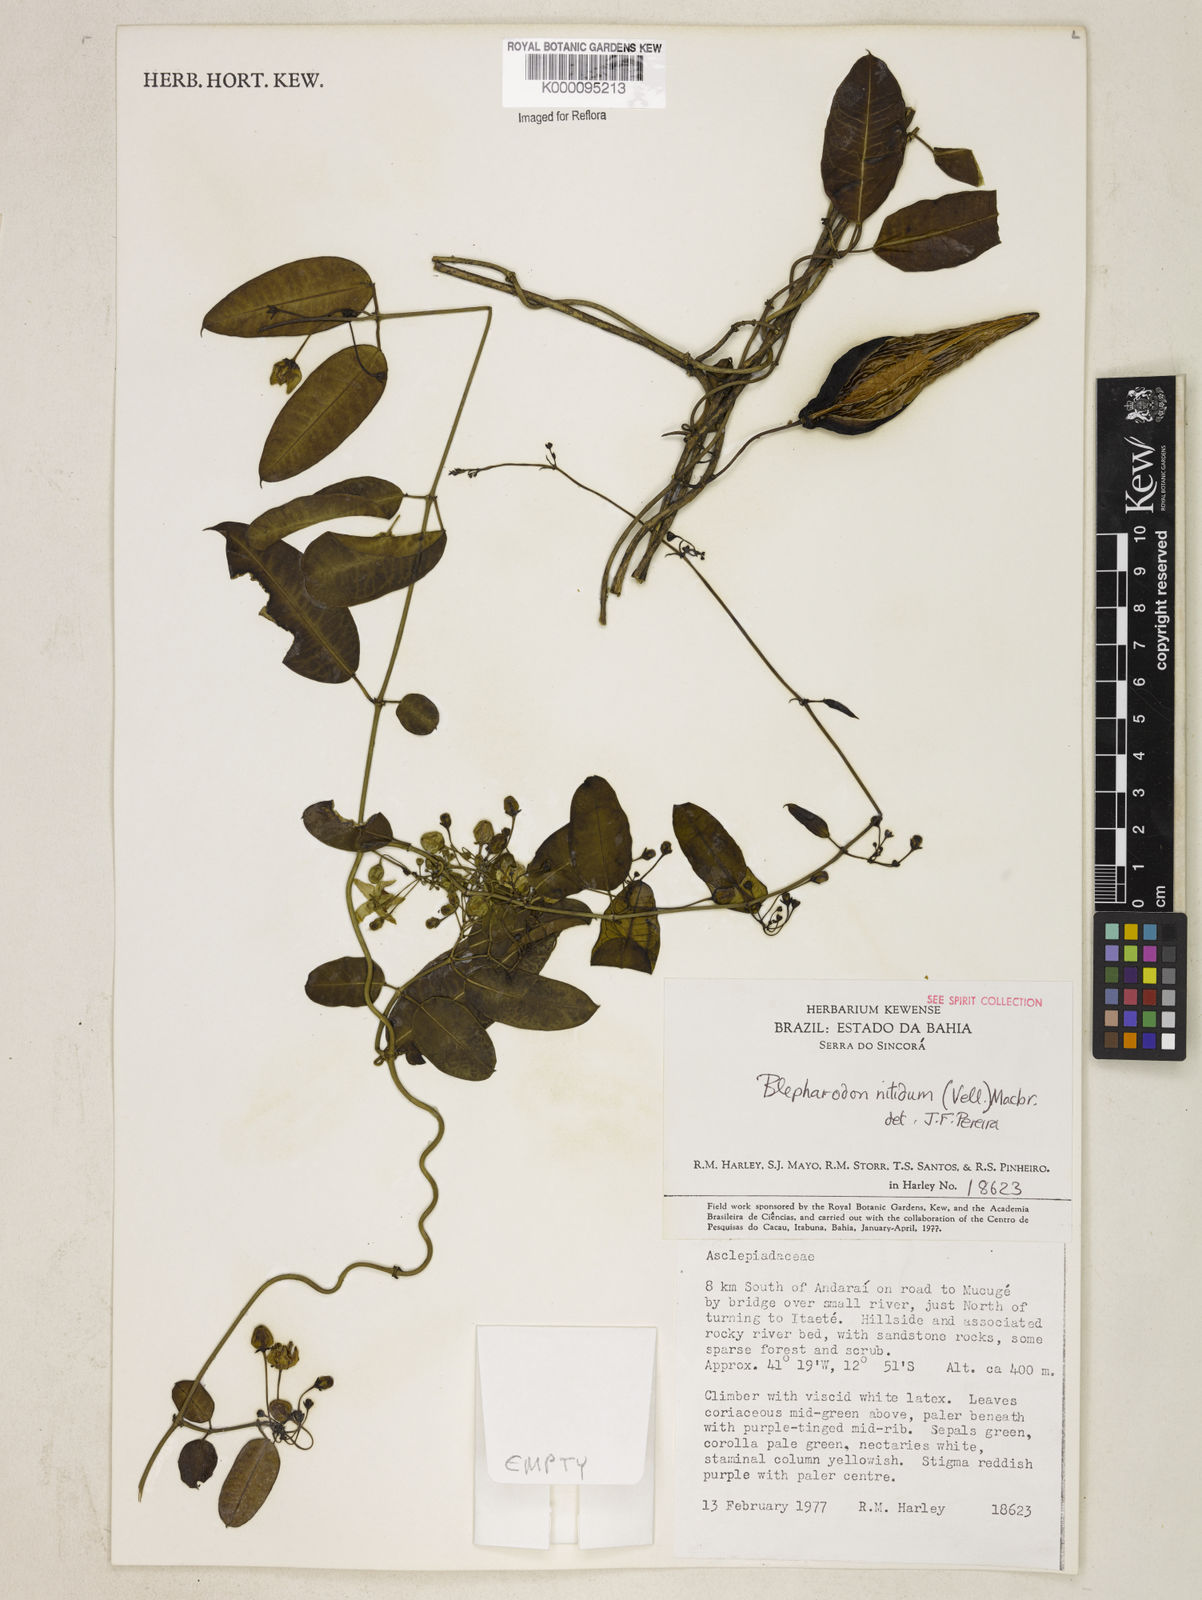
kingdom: Plantae
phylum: Tracheophyta
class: Magnoliopsida
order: Gentianales
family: Apocynaceae
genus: Blepharodon
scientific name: Blepharodon pictum
